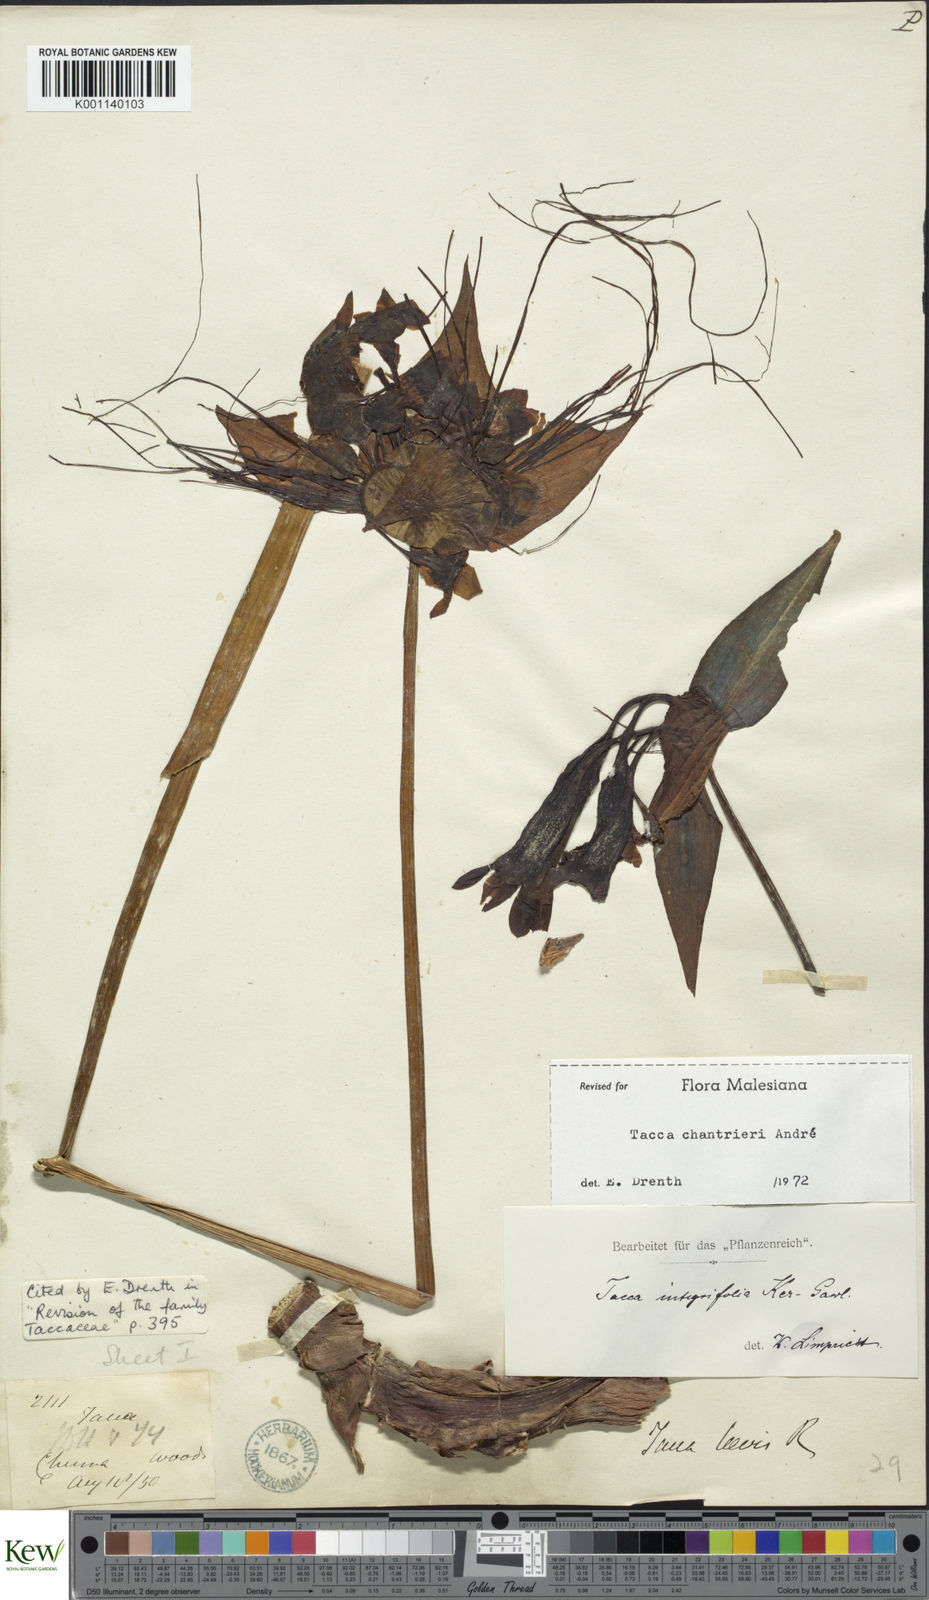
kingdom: Plantae
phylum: Tracheophyta
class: Liliopsida
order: Dioscoreales
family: Dioscoreaceae
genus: Tacca
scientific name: Tacca
